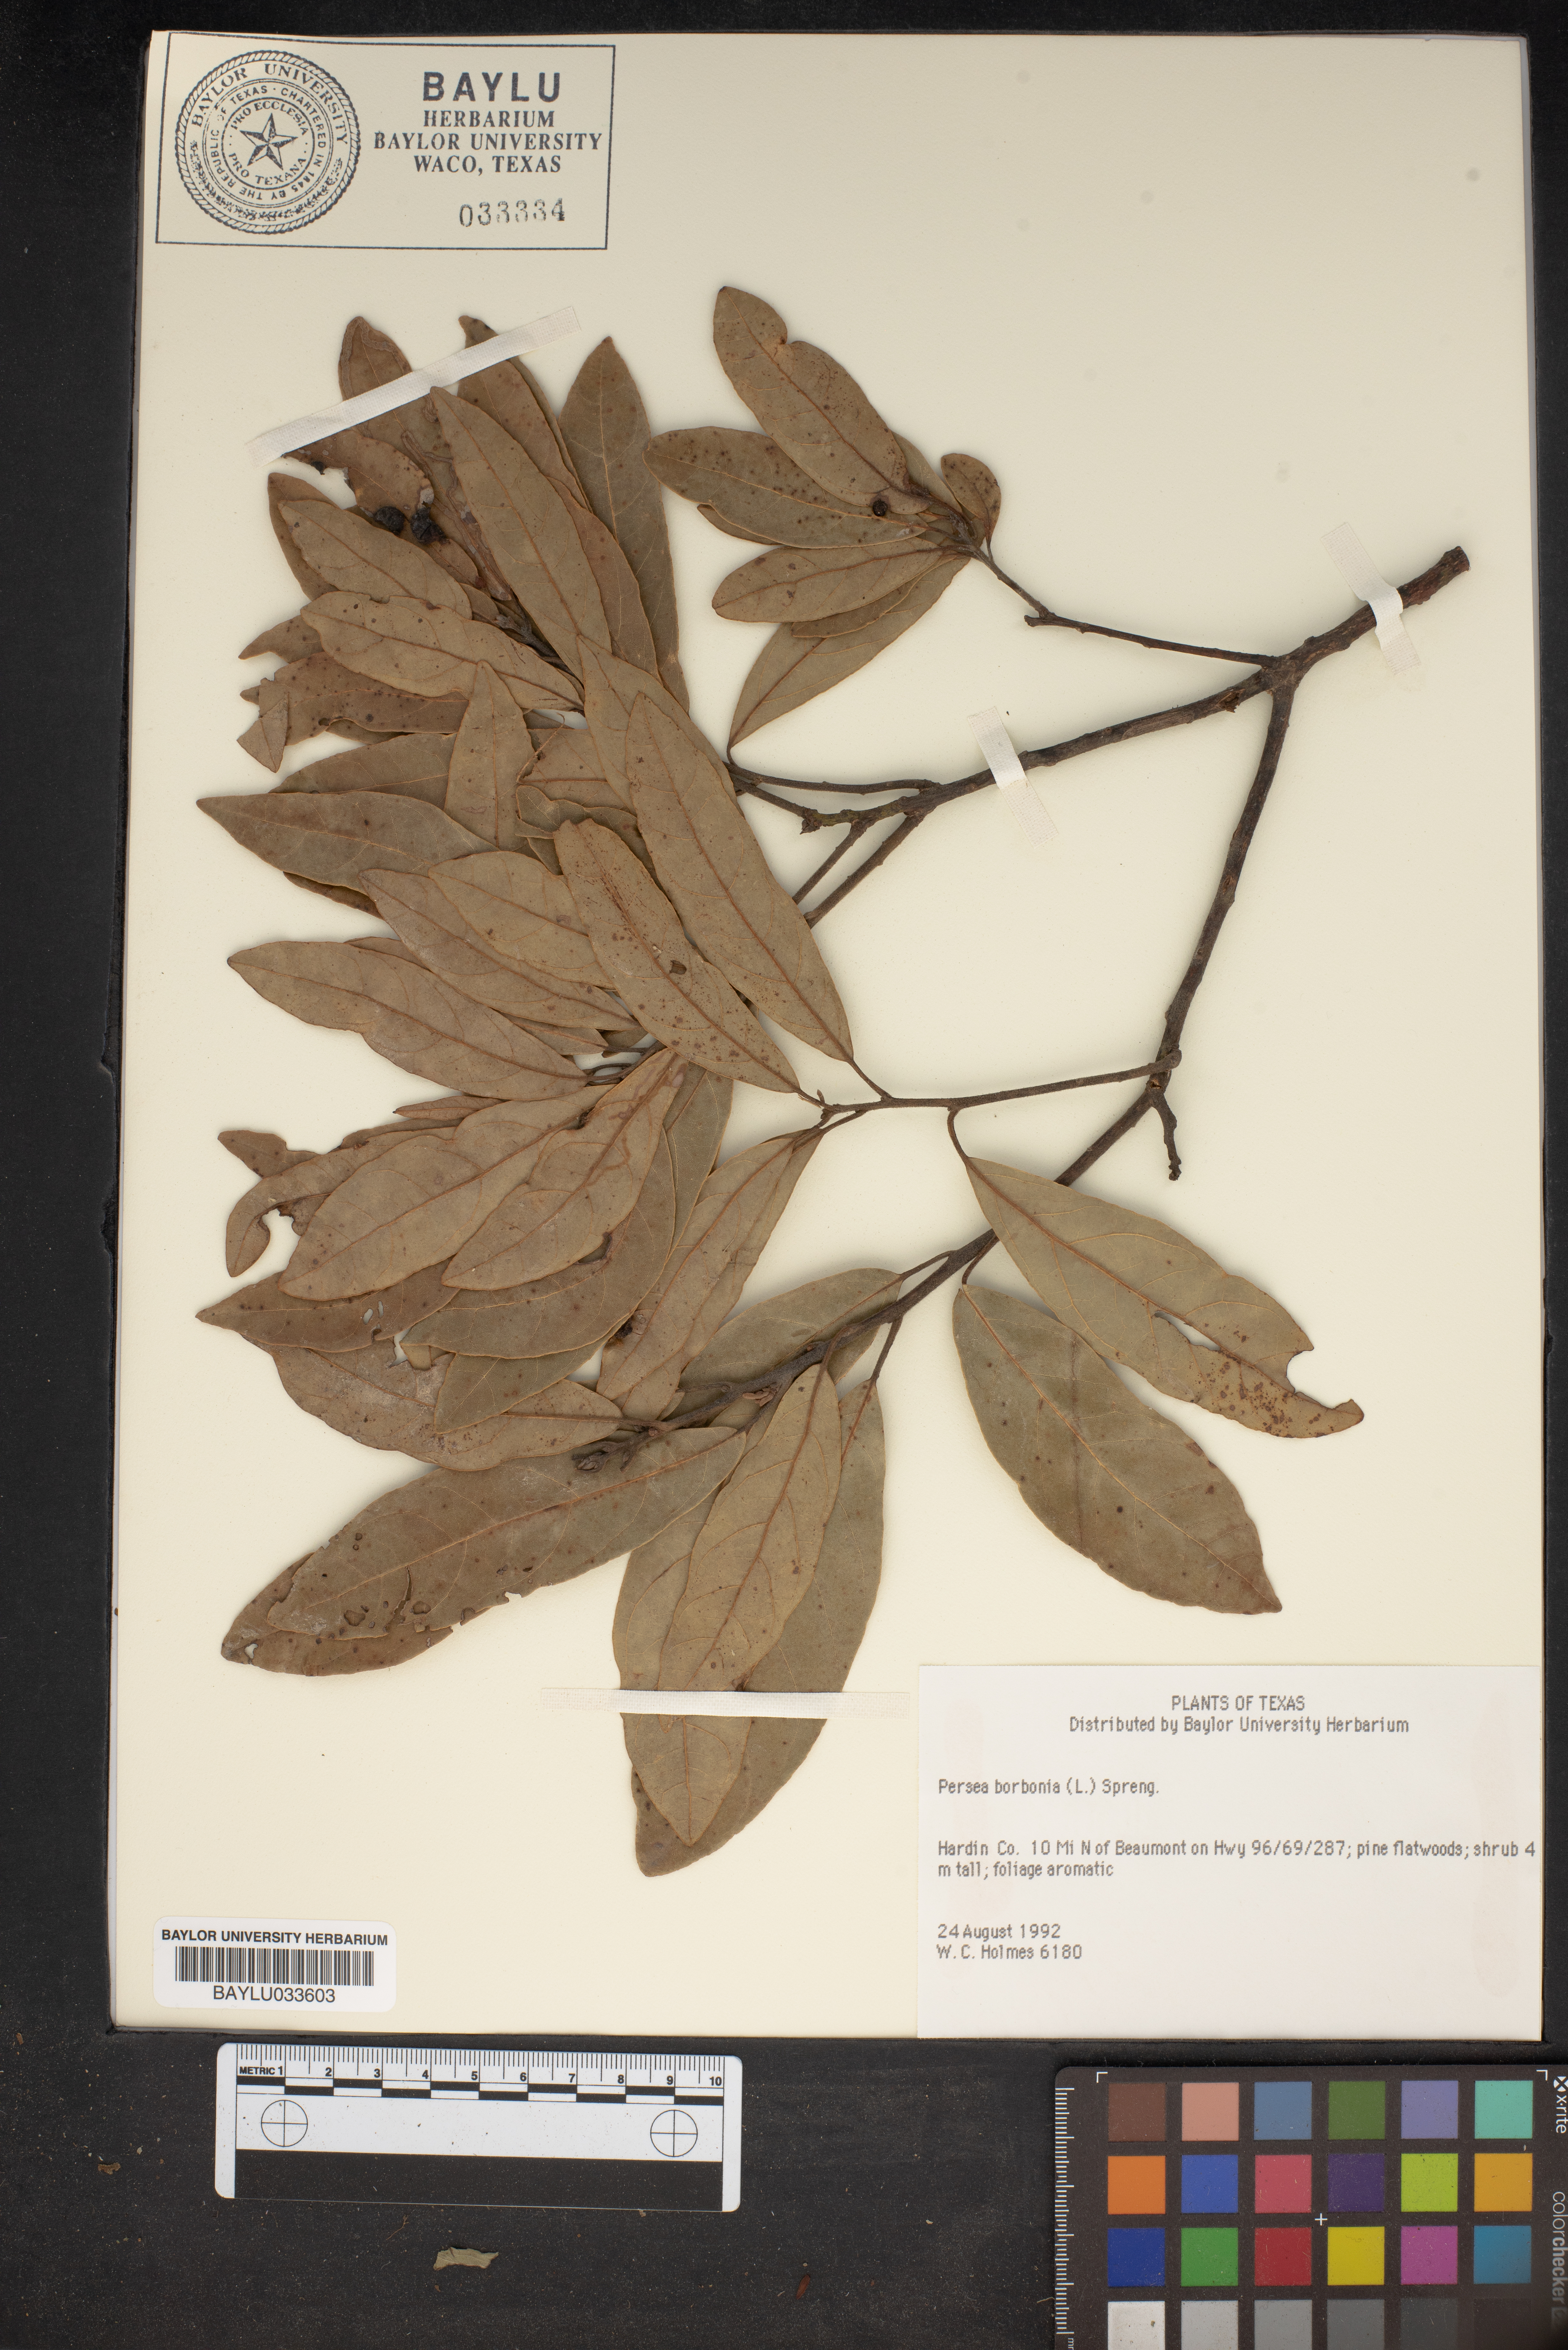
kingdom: Plantae
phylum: Tracheophyta
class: Magnoliopsida
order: Laurales
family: Lauraceae
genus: Persea
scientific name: Persea borbonia
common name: Redbay
